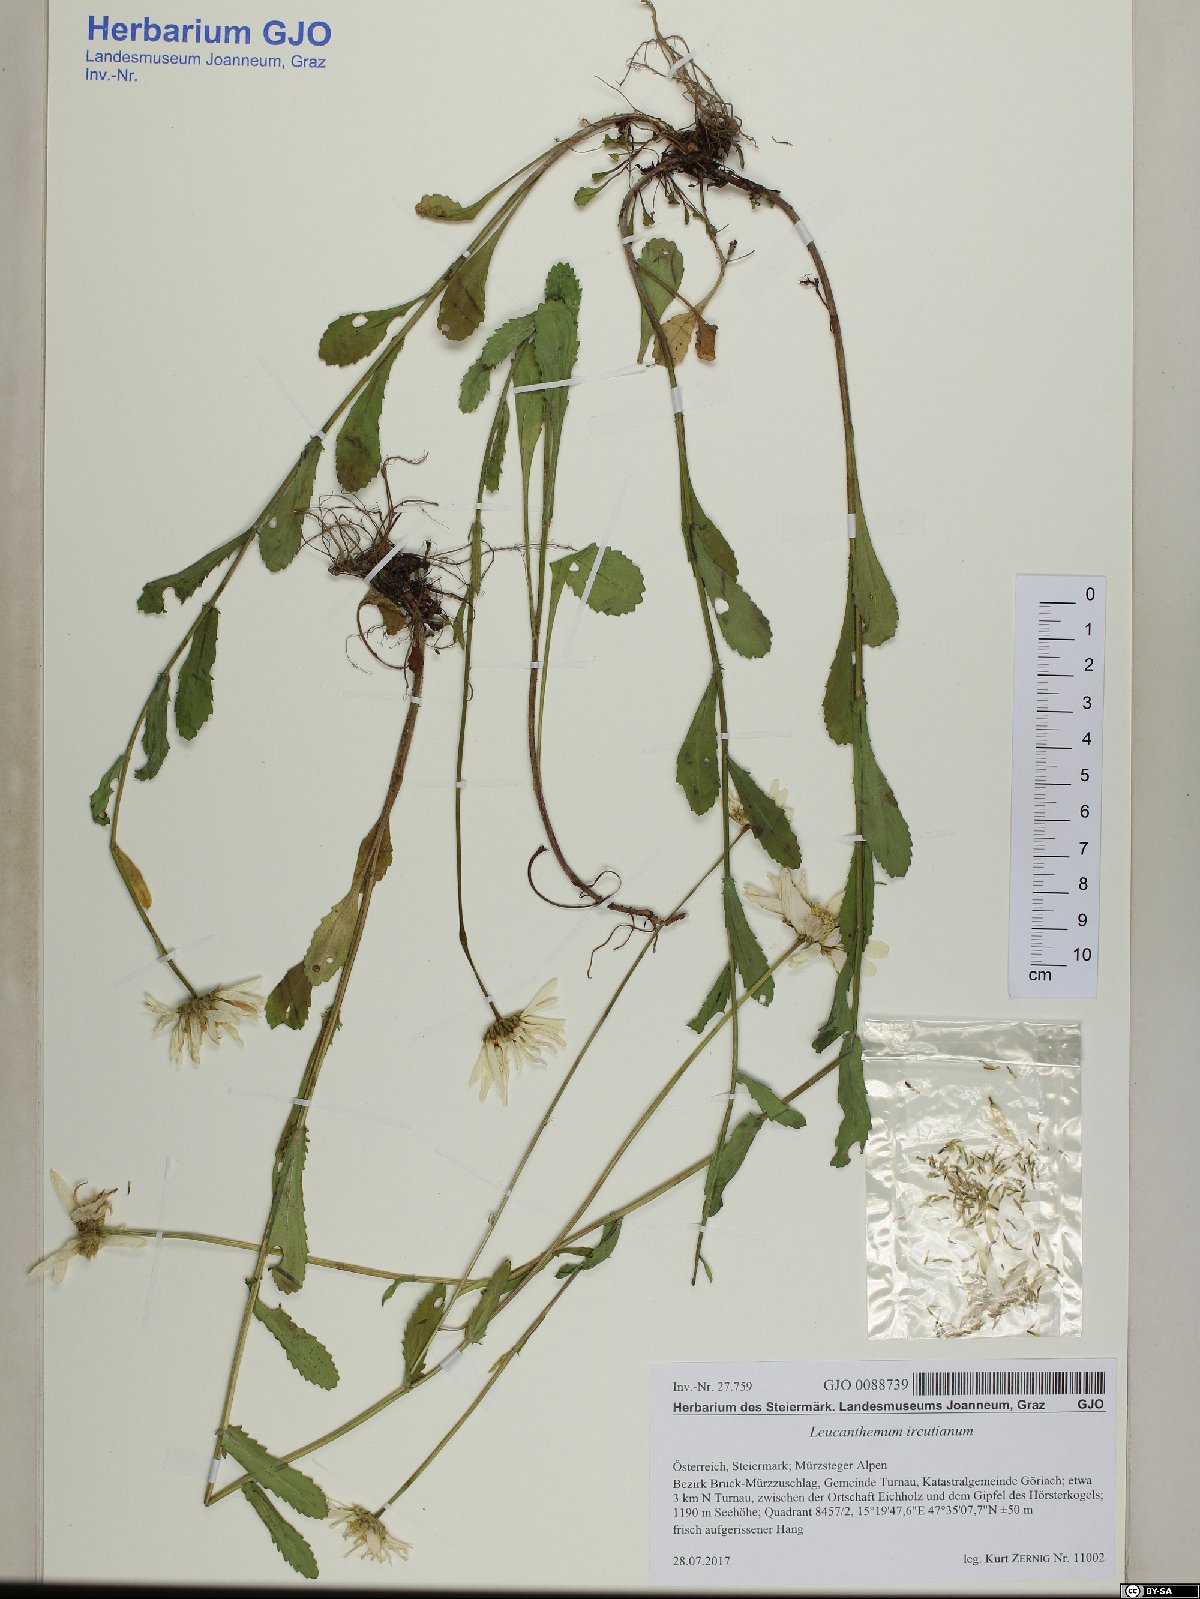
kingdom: Plantae
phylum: Tracheophyta
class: Magnoliopsida
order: Asterales
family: Asteraceae
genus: Leucanthemum
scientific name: Leucanthemum ircutianum
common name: Daisy
